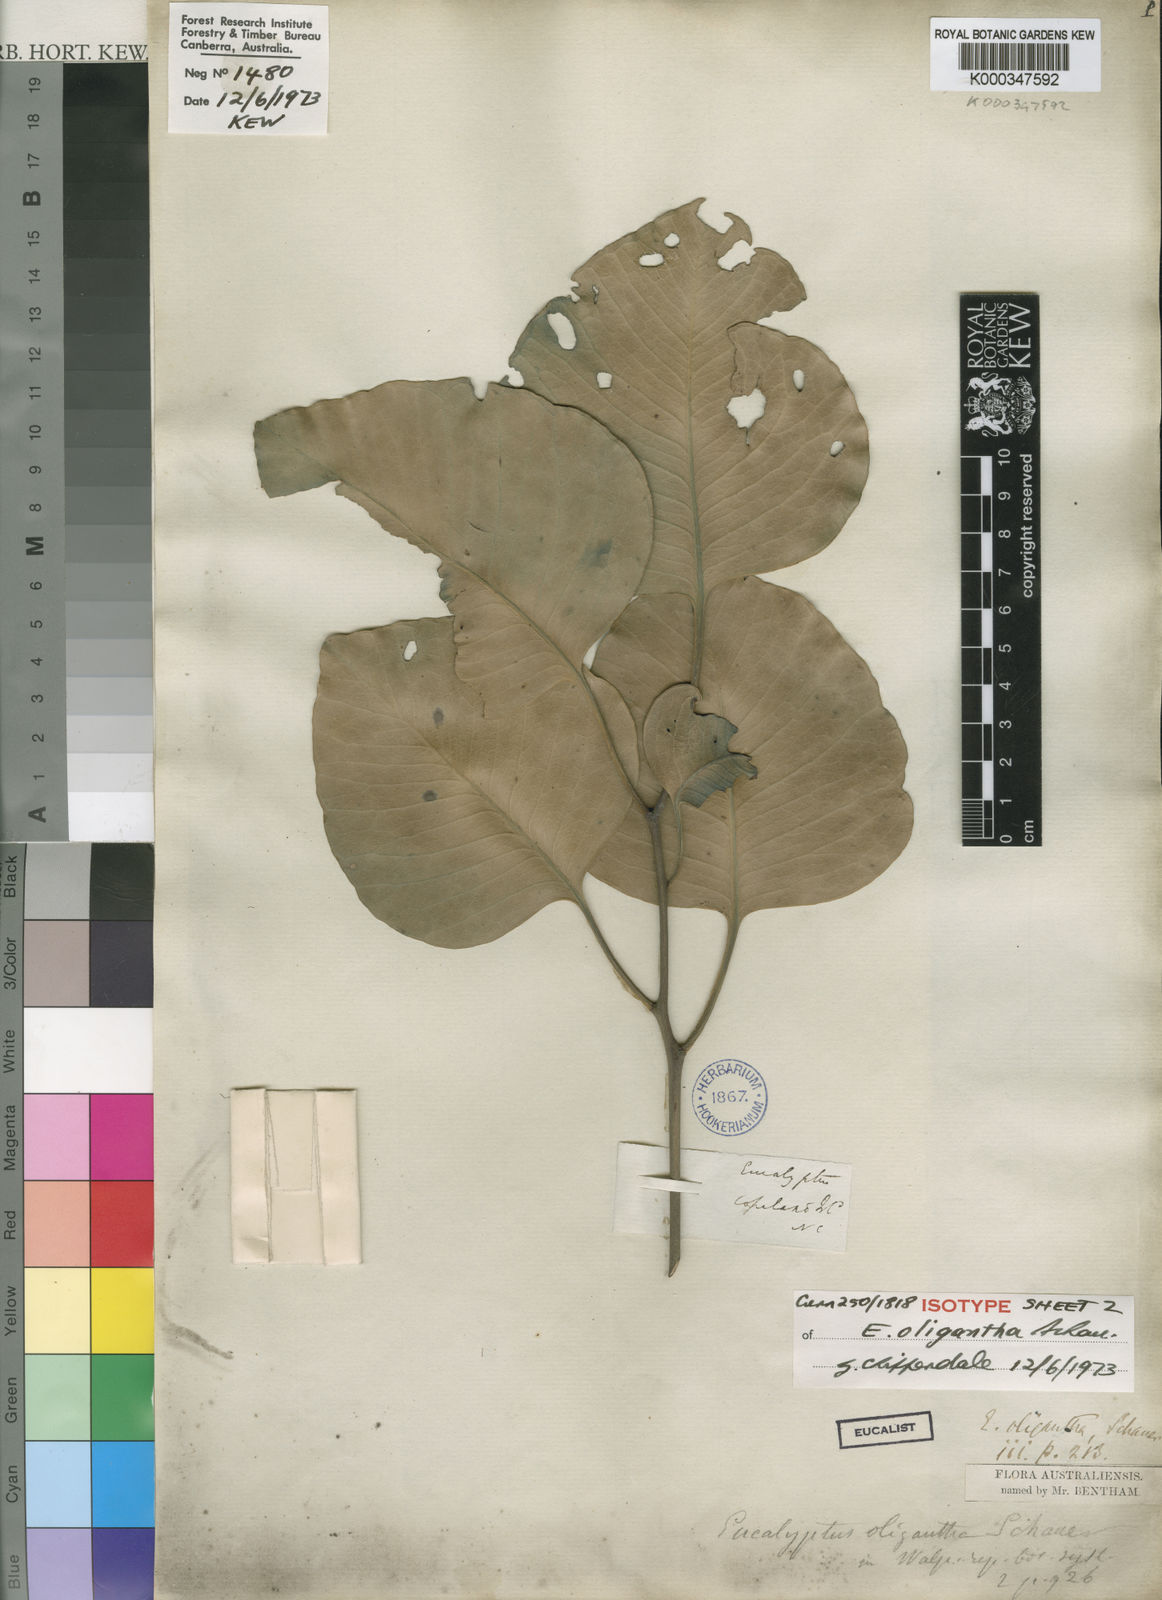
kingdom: Plantae
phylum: Tracheophyta
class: Magnoliopsida
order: Myrtales
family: Myrtaceae
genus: Eucalyptus
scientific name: Eucalyptus oligantha
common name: Broadleaf-box
